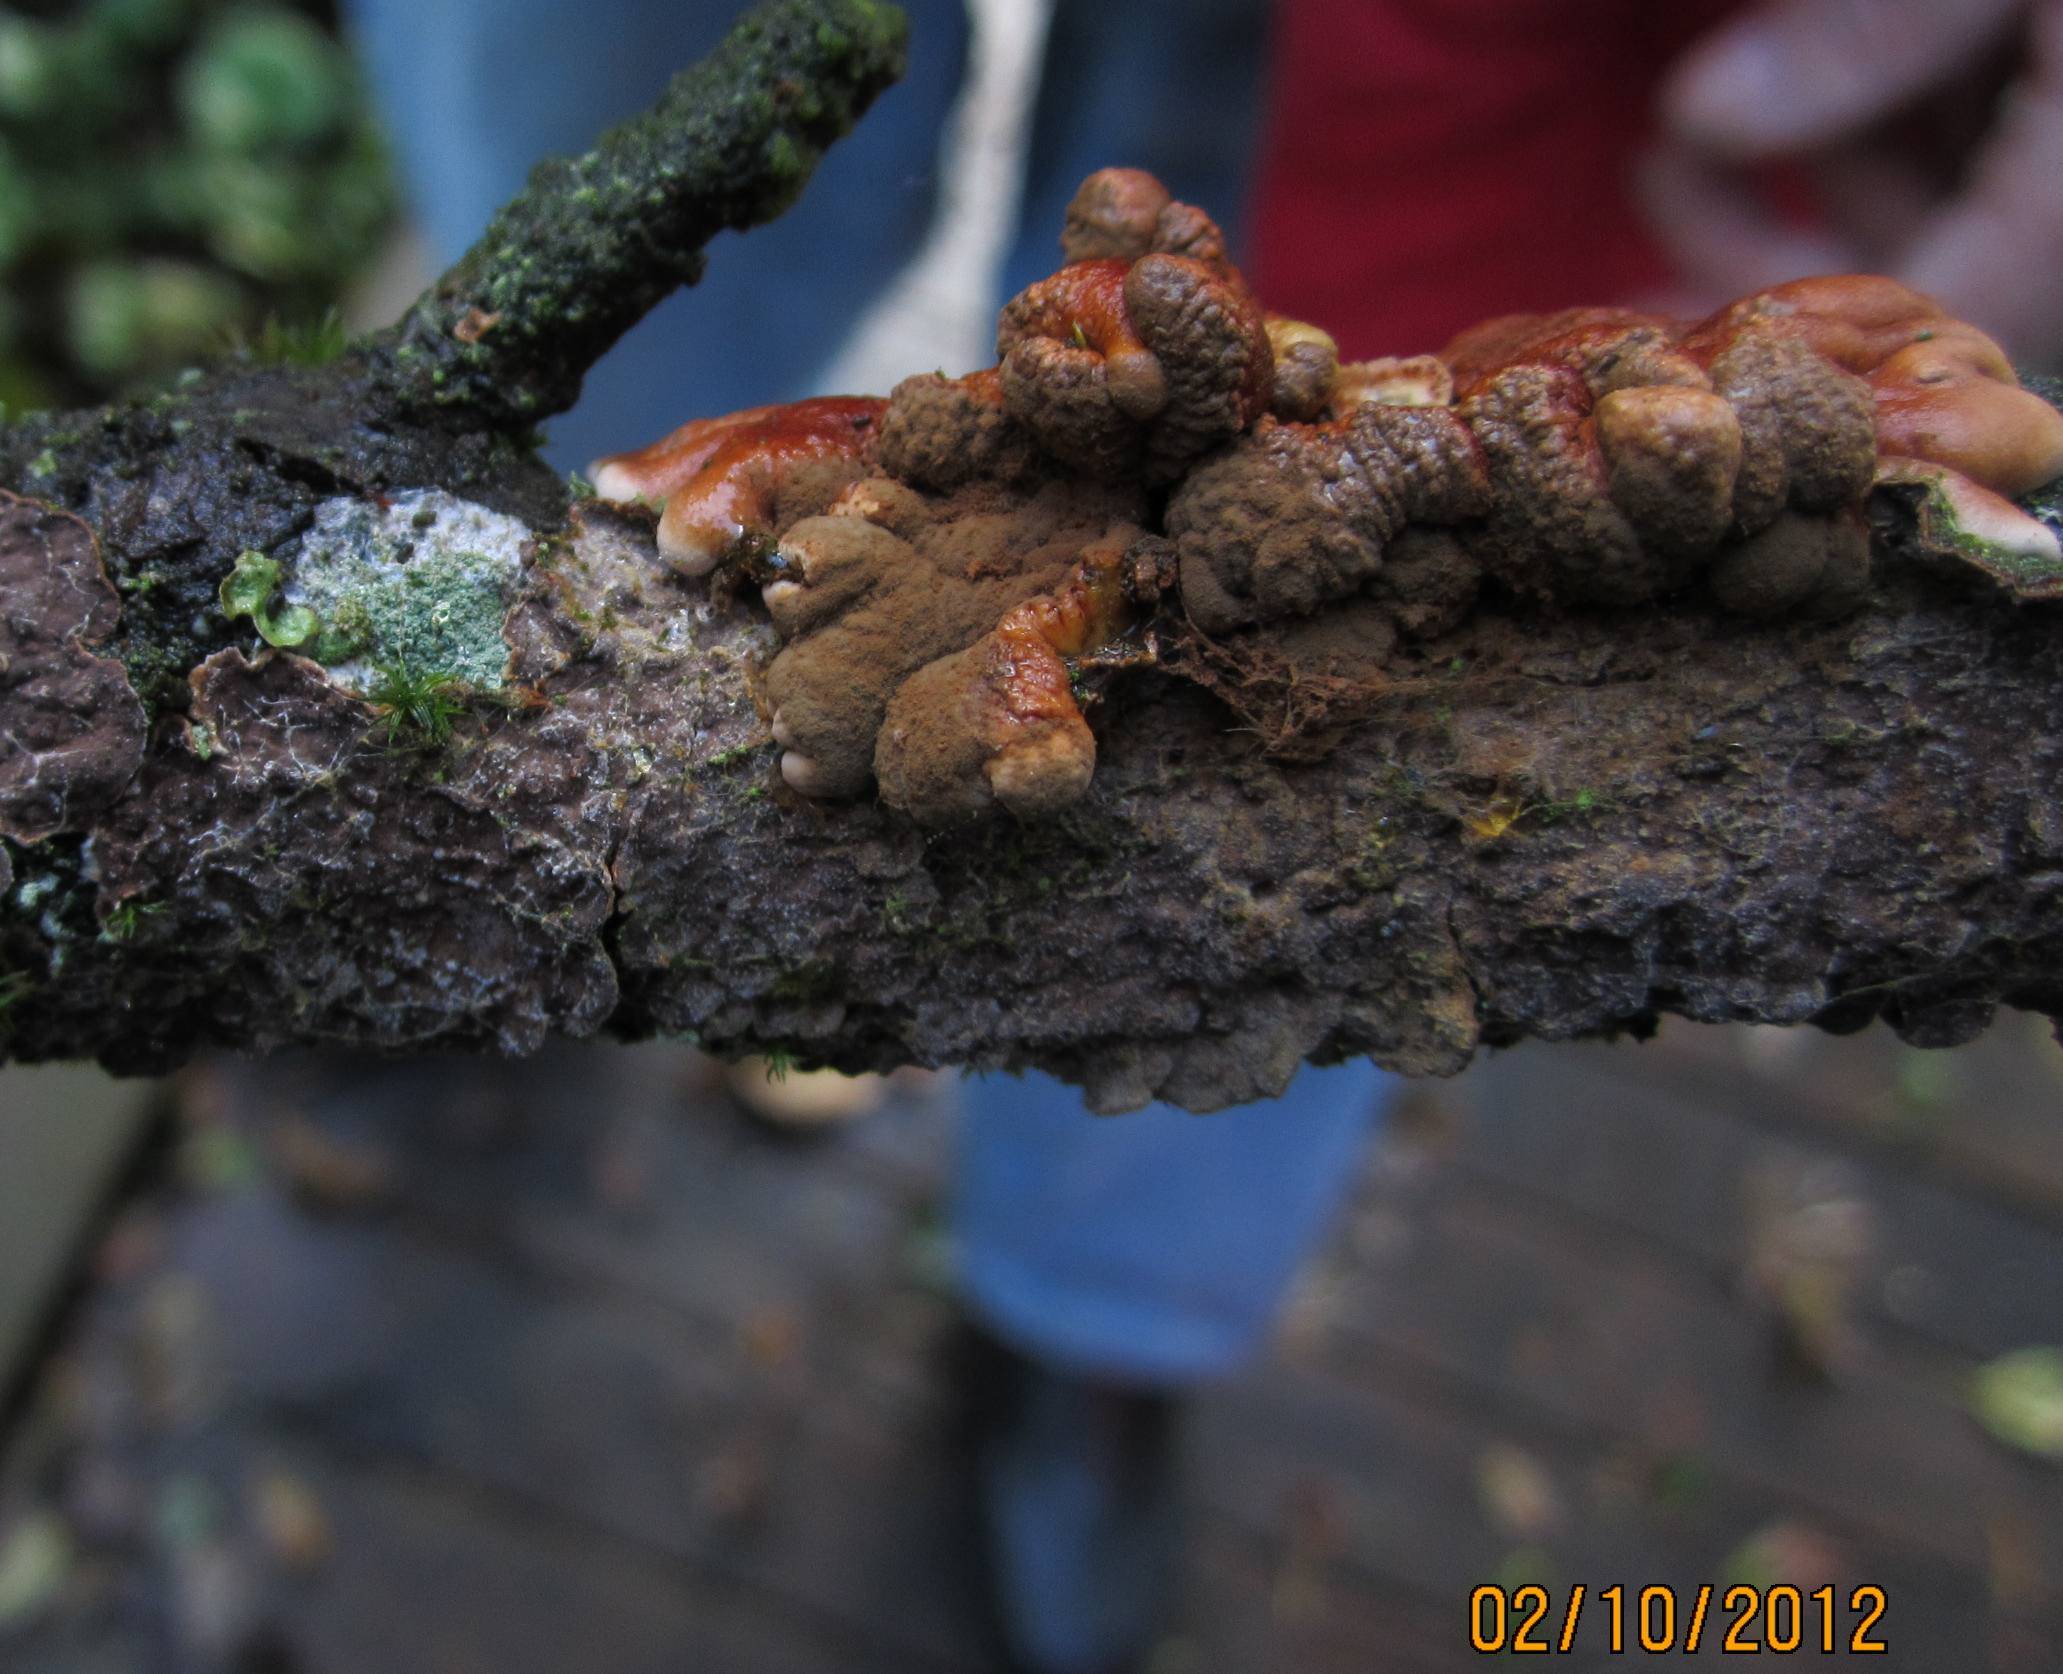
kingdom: Fungi
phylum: Basidiomycota
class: Agaricomycetes
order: Hymenochaetales
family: Hymenochaetaceae
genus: Hydnoporia
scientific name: Hydnoporia tabacina
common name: tobaksbrun ruslædersvamp
